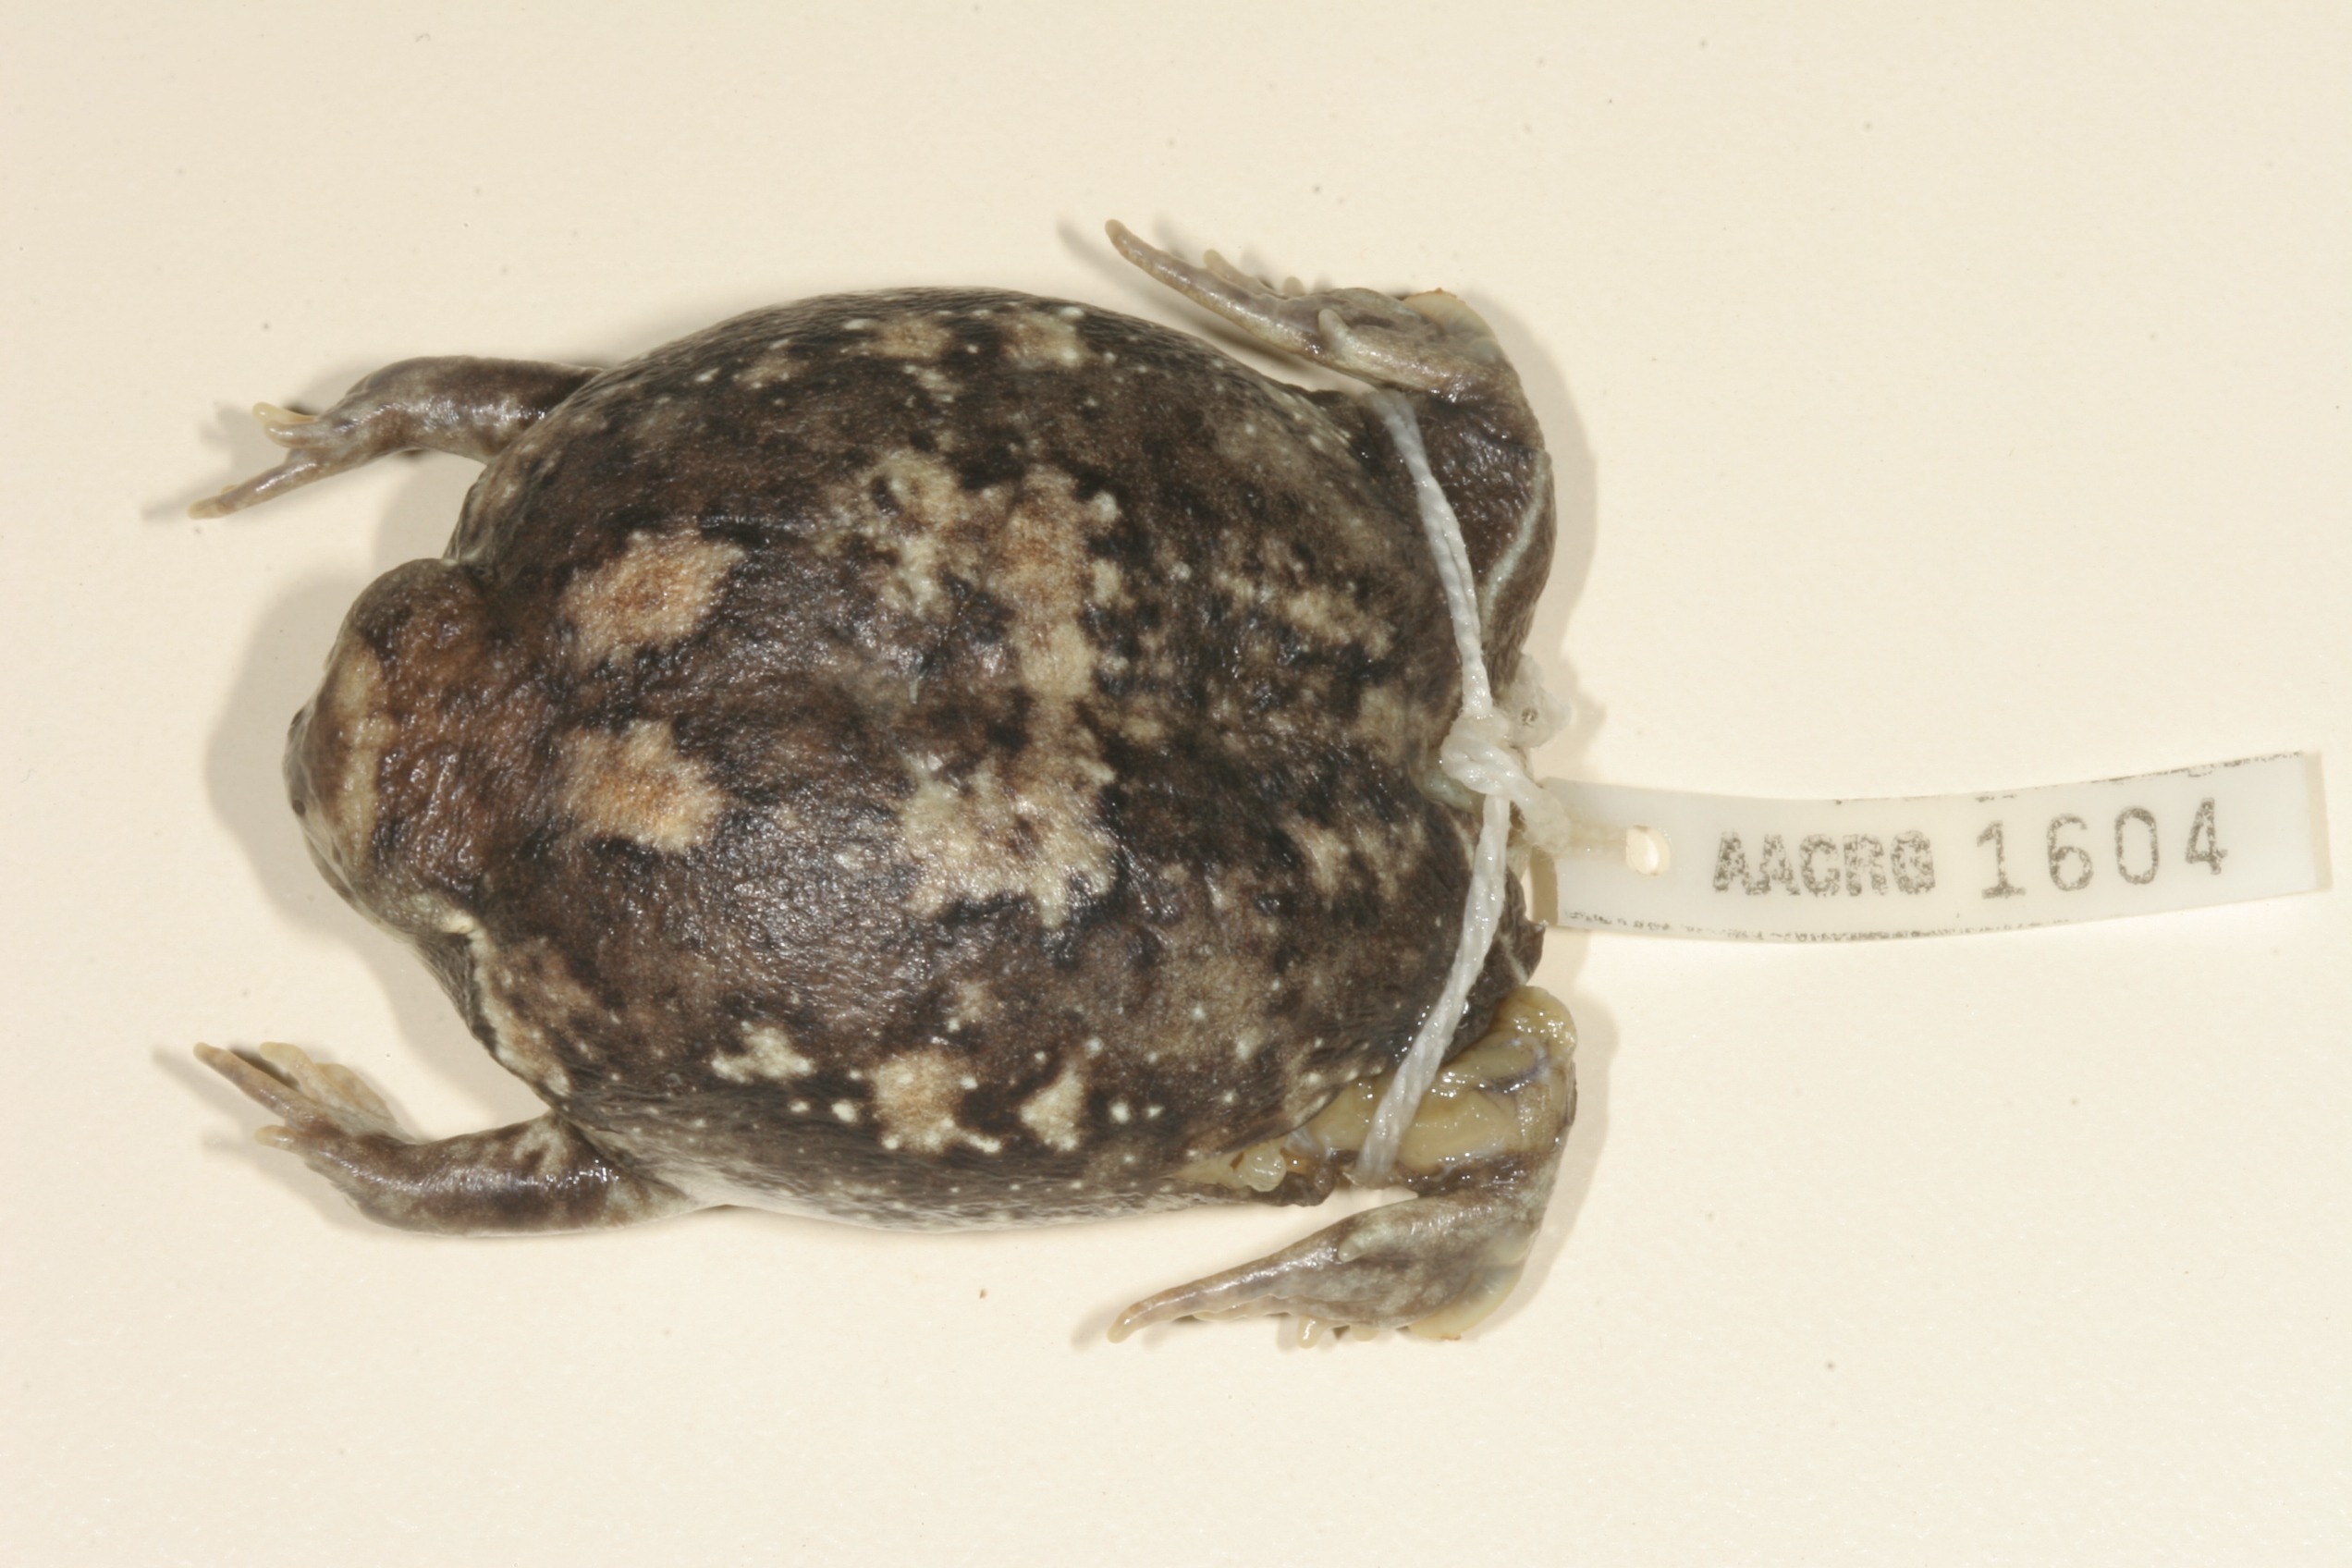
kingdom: Animalia
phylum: Chordata
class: Amphibia
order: Anura
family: Brevicipitidae
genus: Breviceps
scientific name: Breviceps adspersus
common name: Common rain frog
